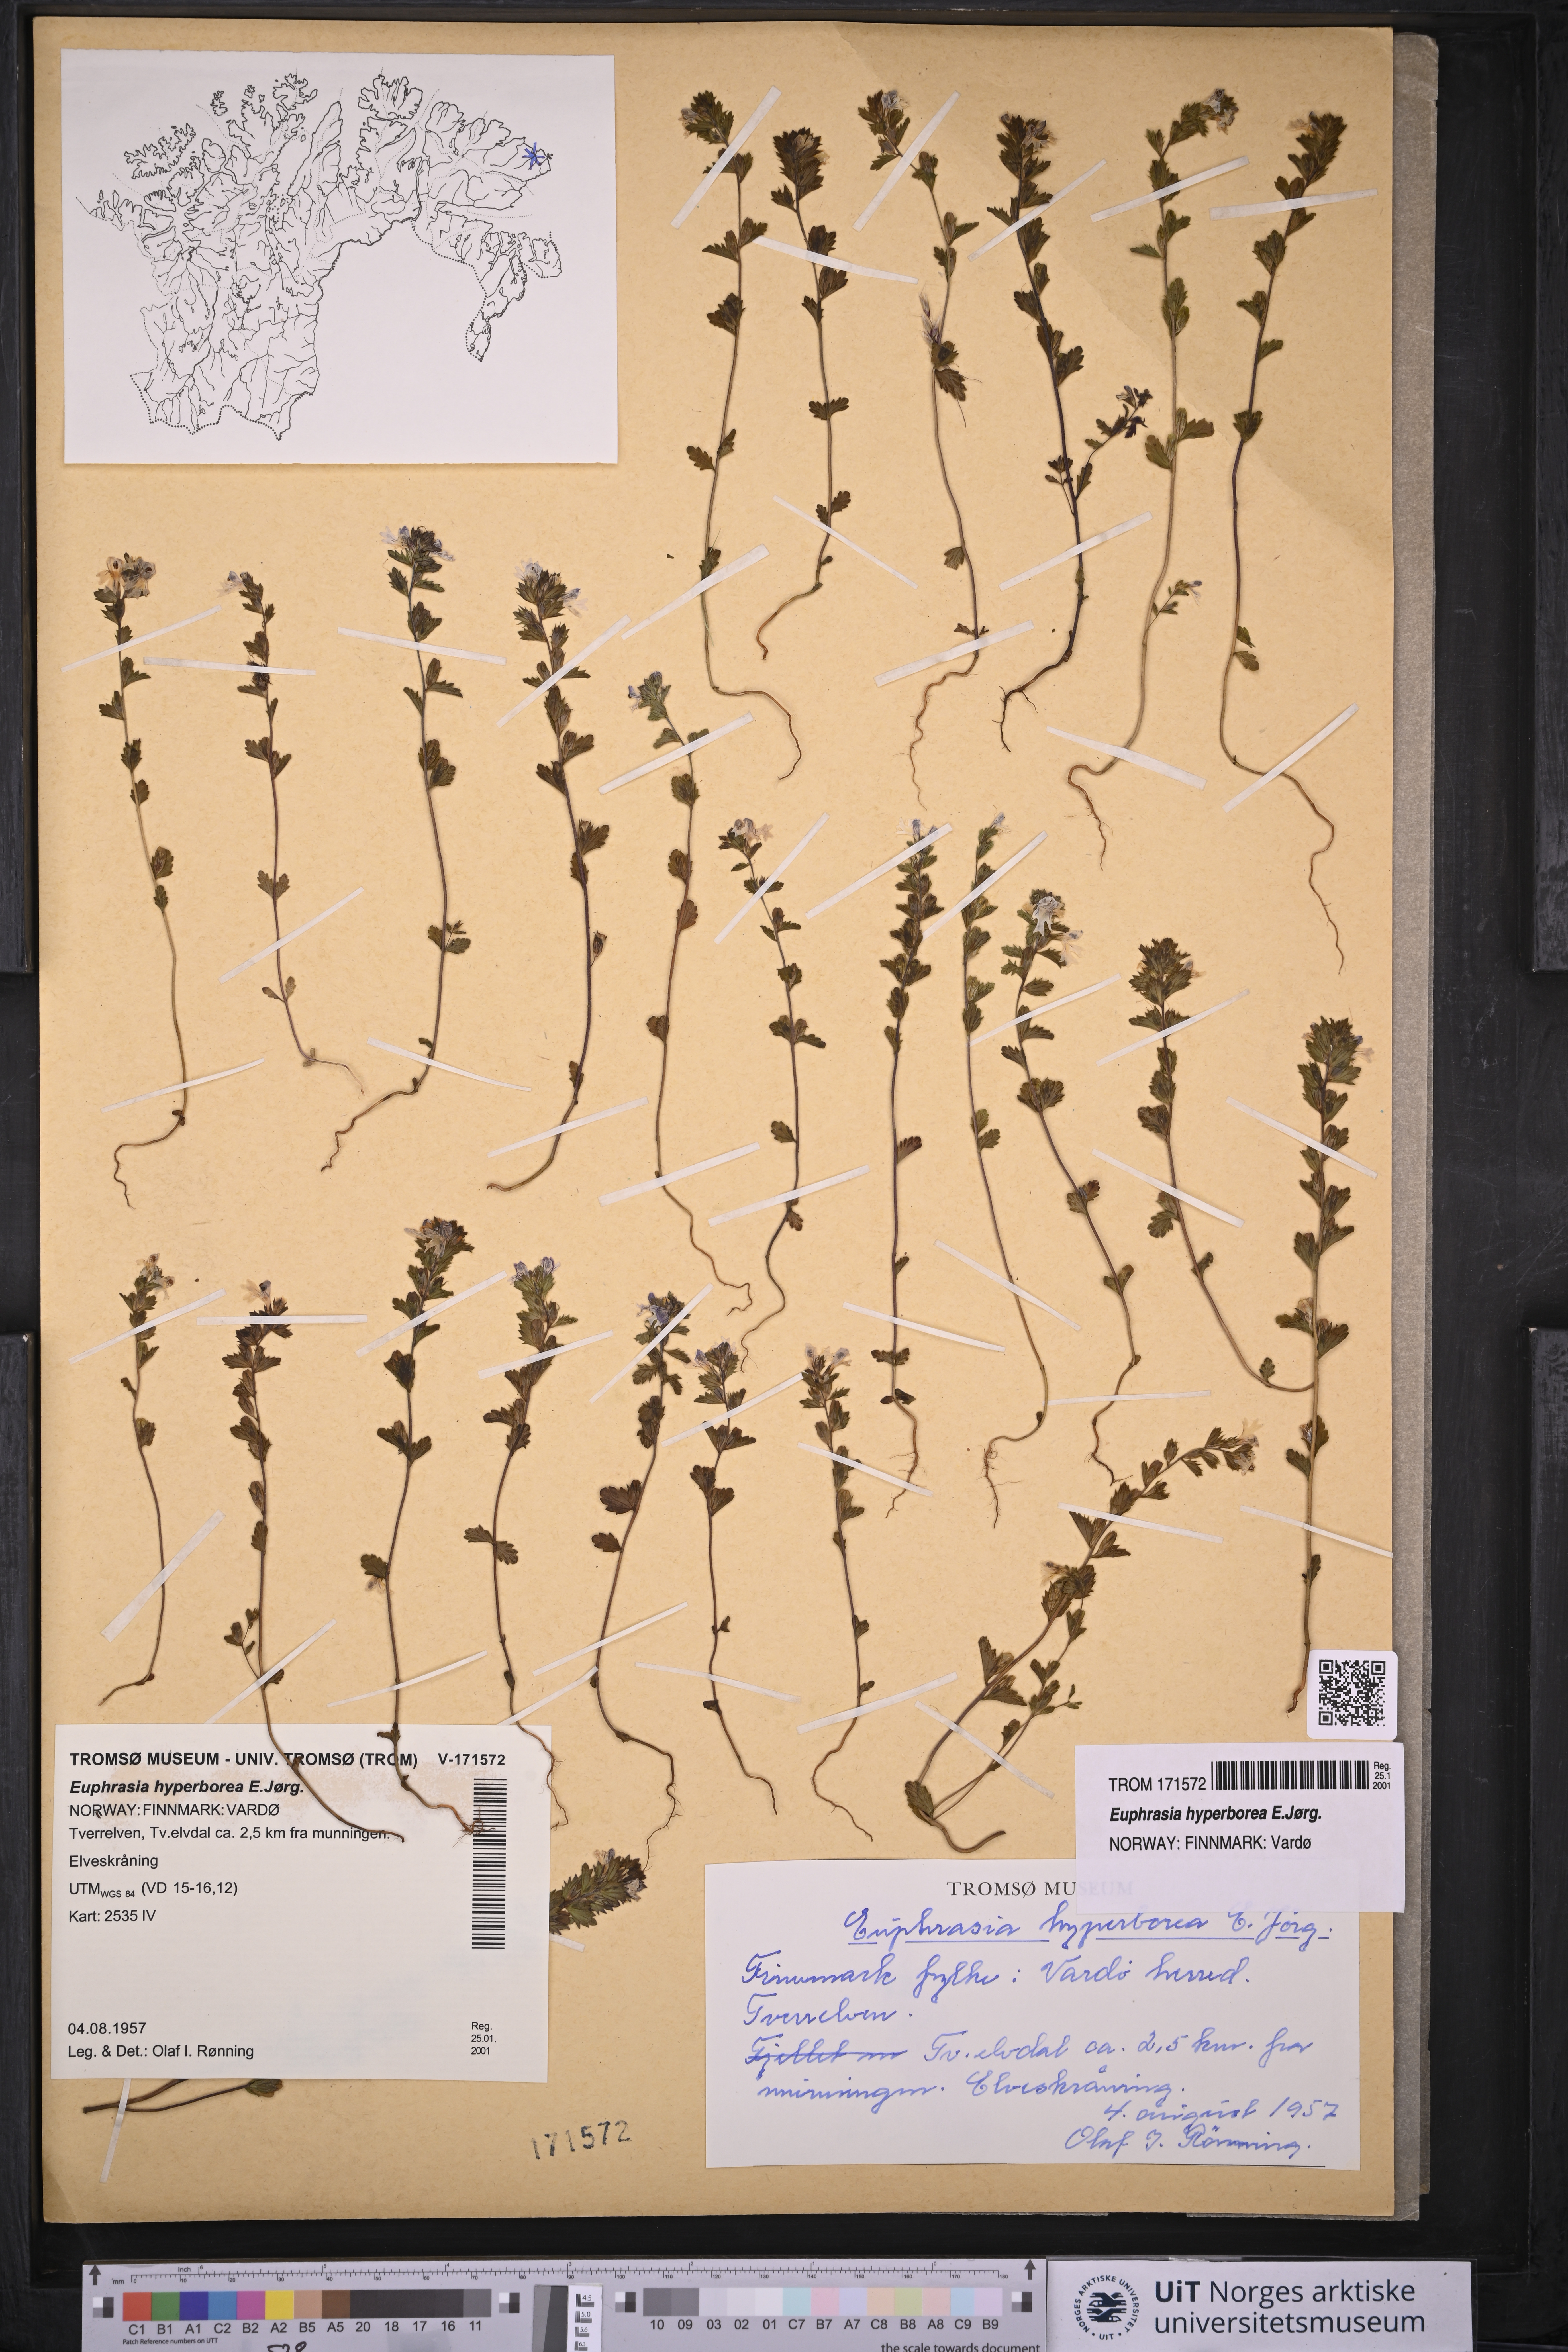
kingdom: Plantae
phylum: Tracheophyta
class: Magnoliopsida
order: Lamiales
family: Orobanchaceae
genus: Euphrasia
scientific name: Euphrasia hyperborea
